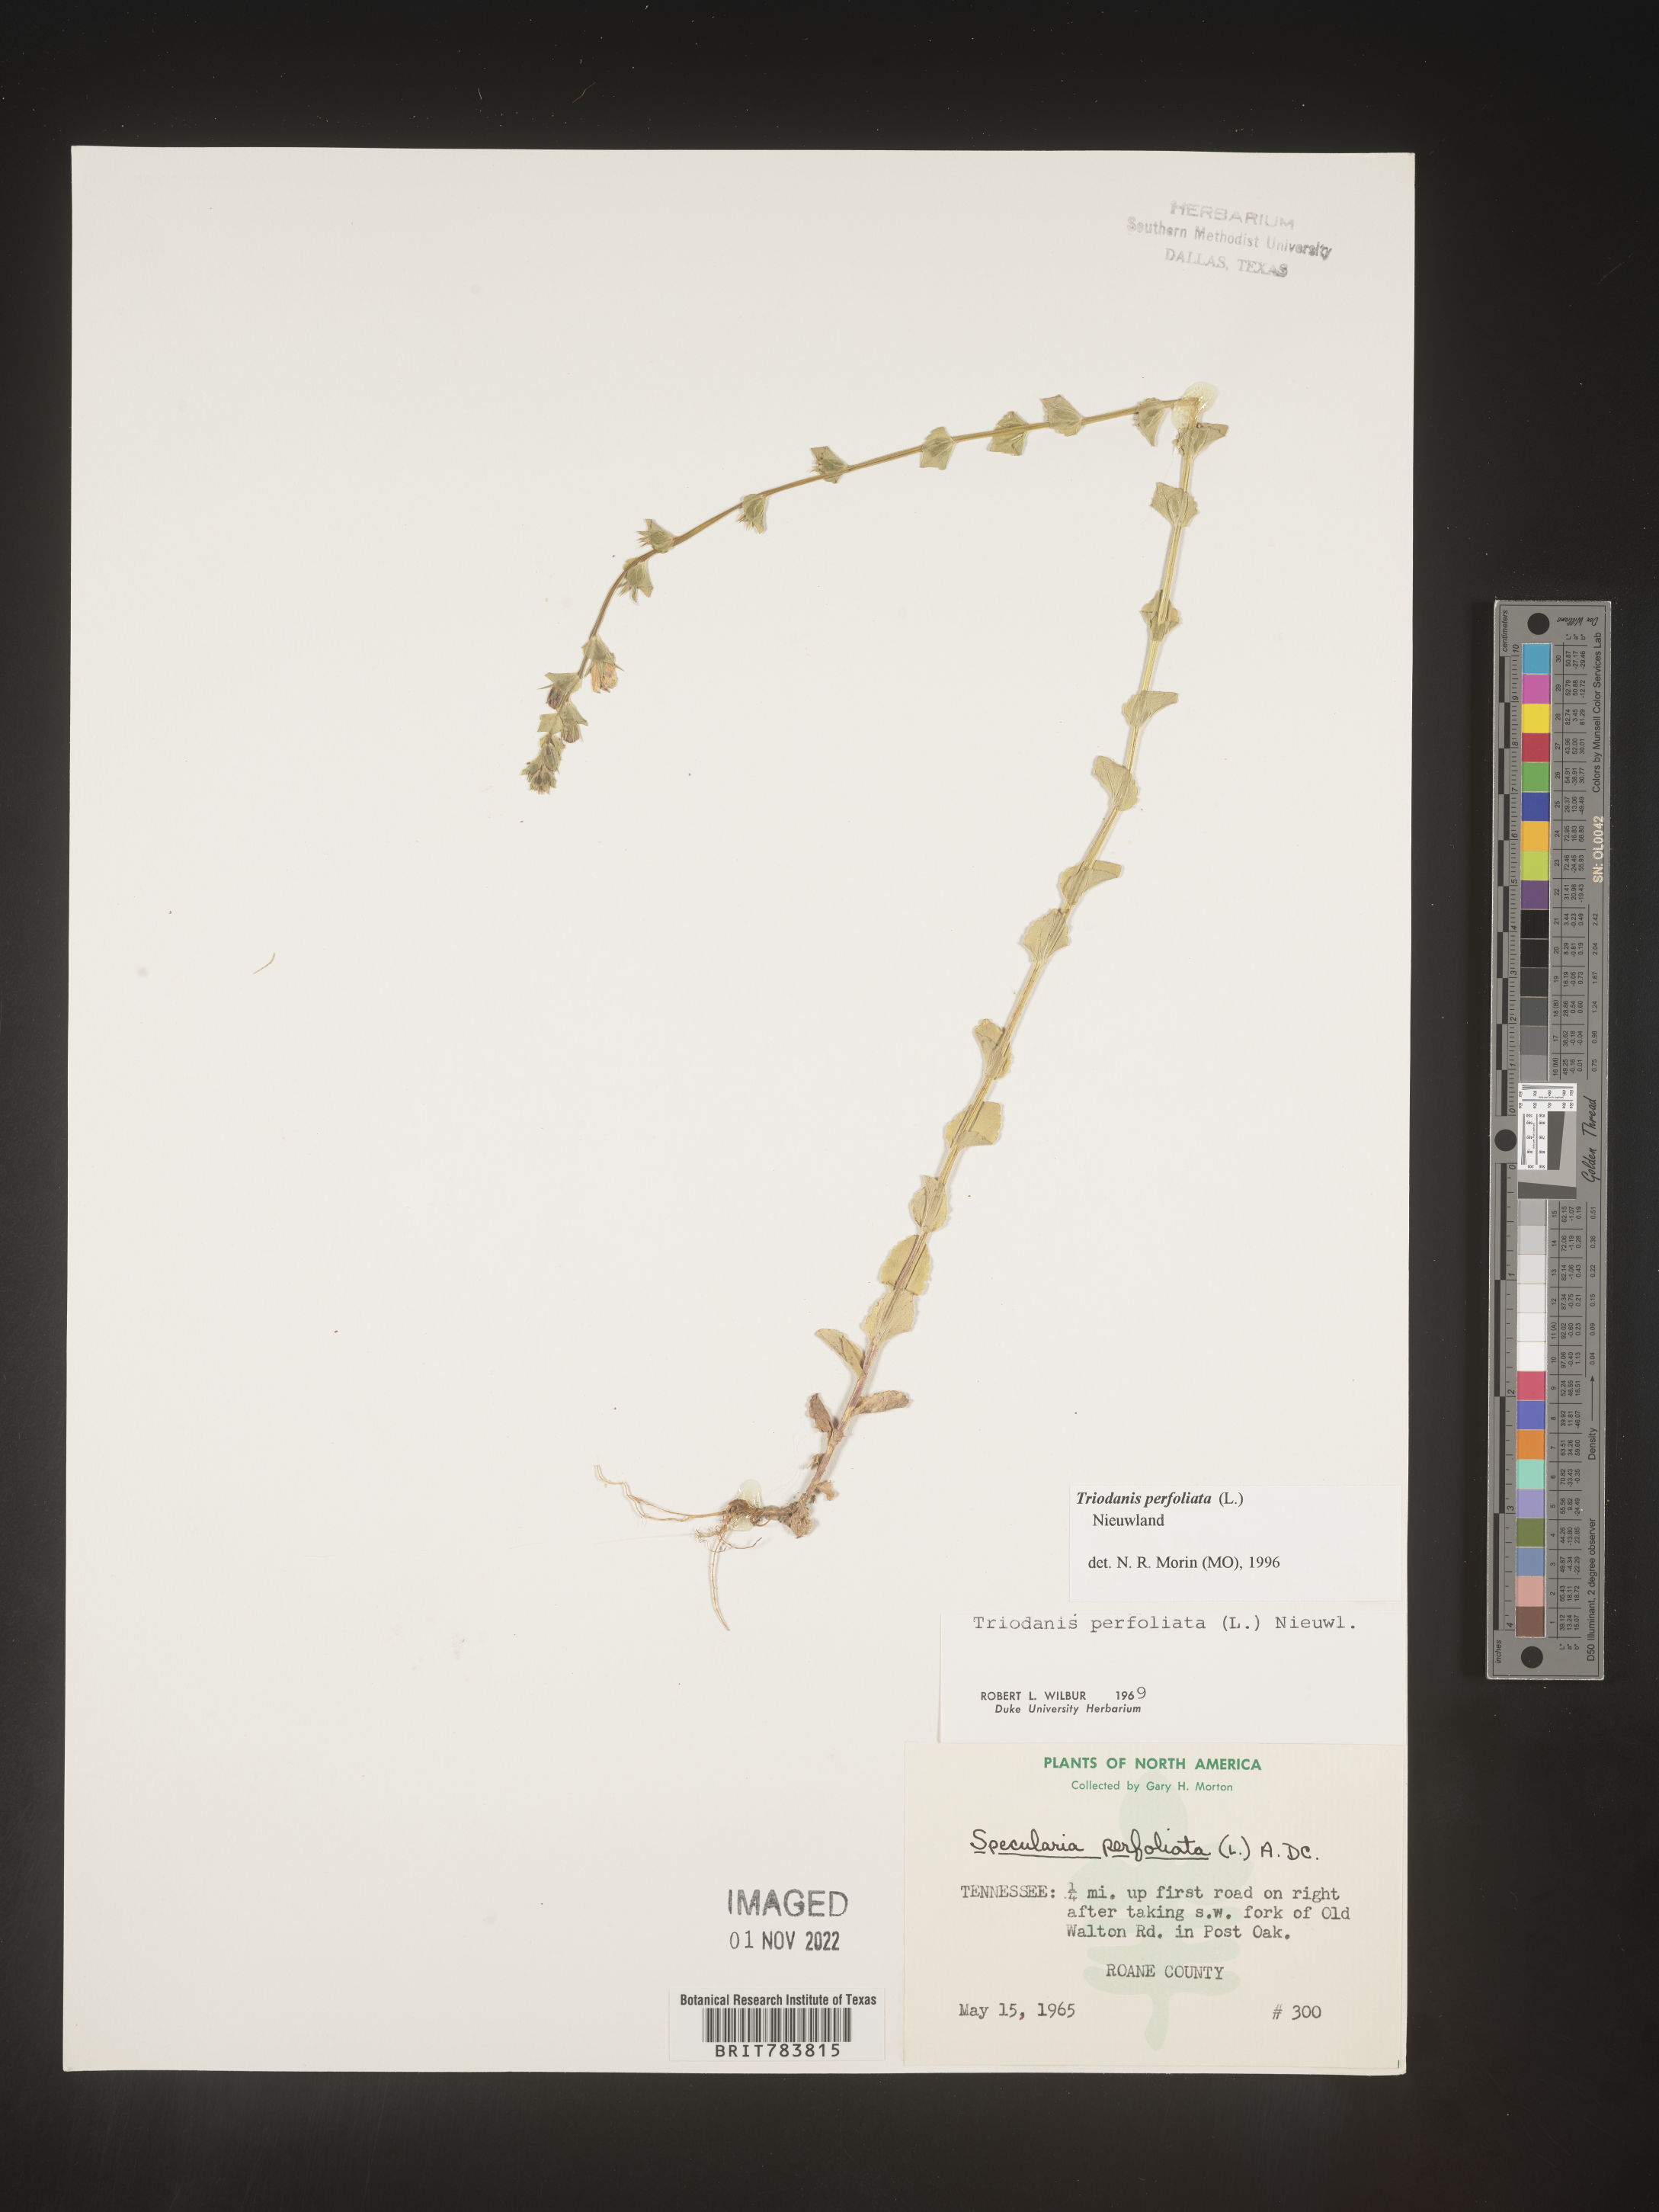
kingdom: Plantae
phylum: Tracheophyta
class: Magnoliopsida
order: Asterales
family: Campanulaceae
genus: Triodanis
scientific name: Triodanis perfoliata
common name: Clasping venus' looking-glass
